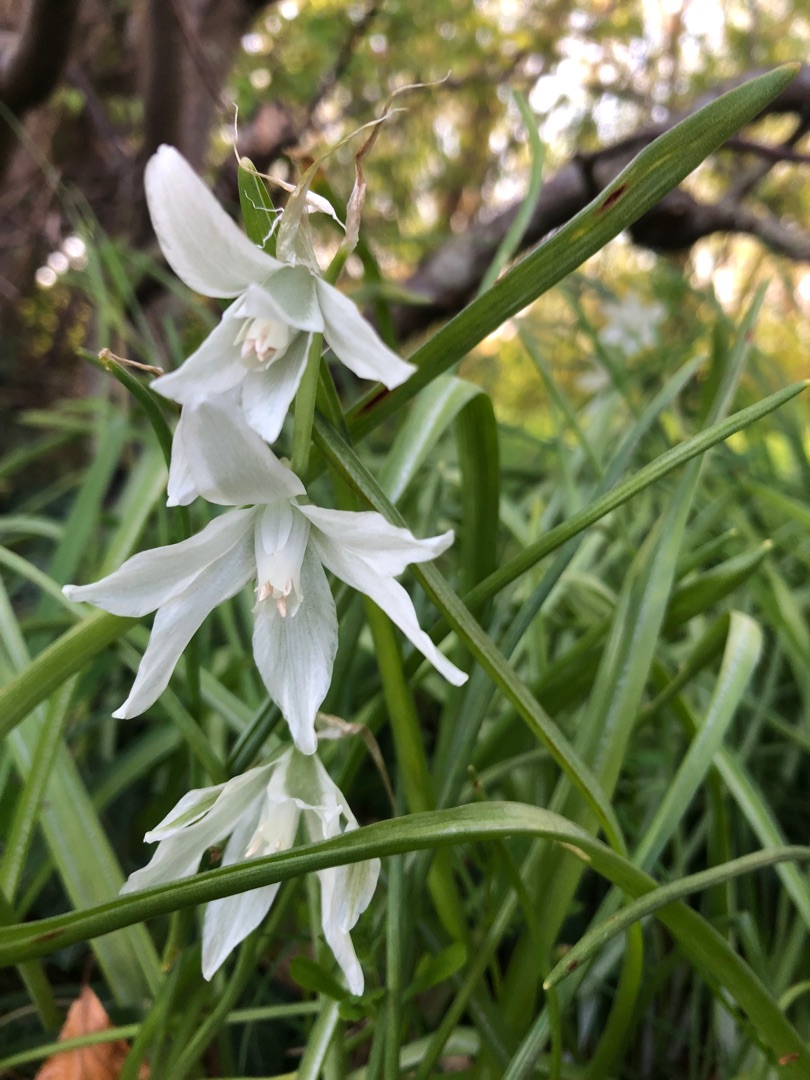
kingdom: Plantae
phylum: Tracheophyta
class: Liliopsida
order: Asparagales
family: Asparagaceae
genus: Ornithogalum
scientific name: Ornithogalum nutans
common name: Nikkende fuglemælk
